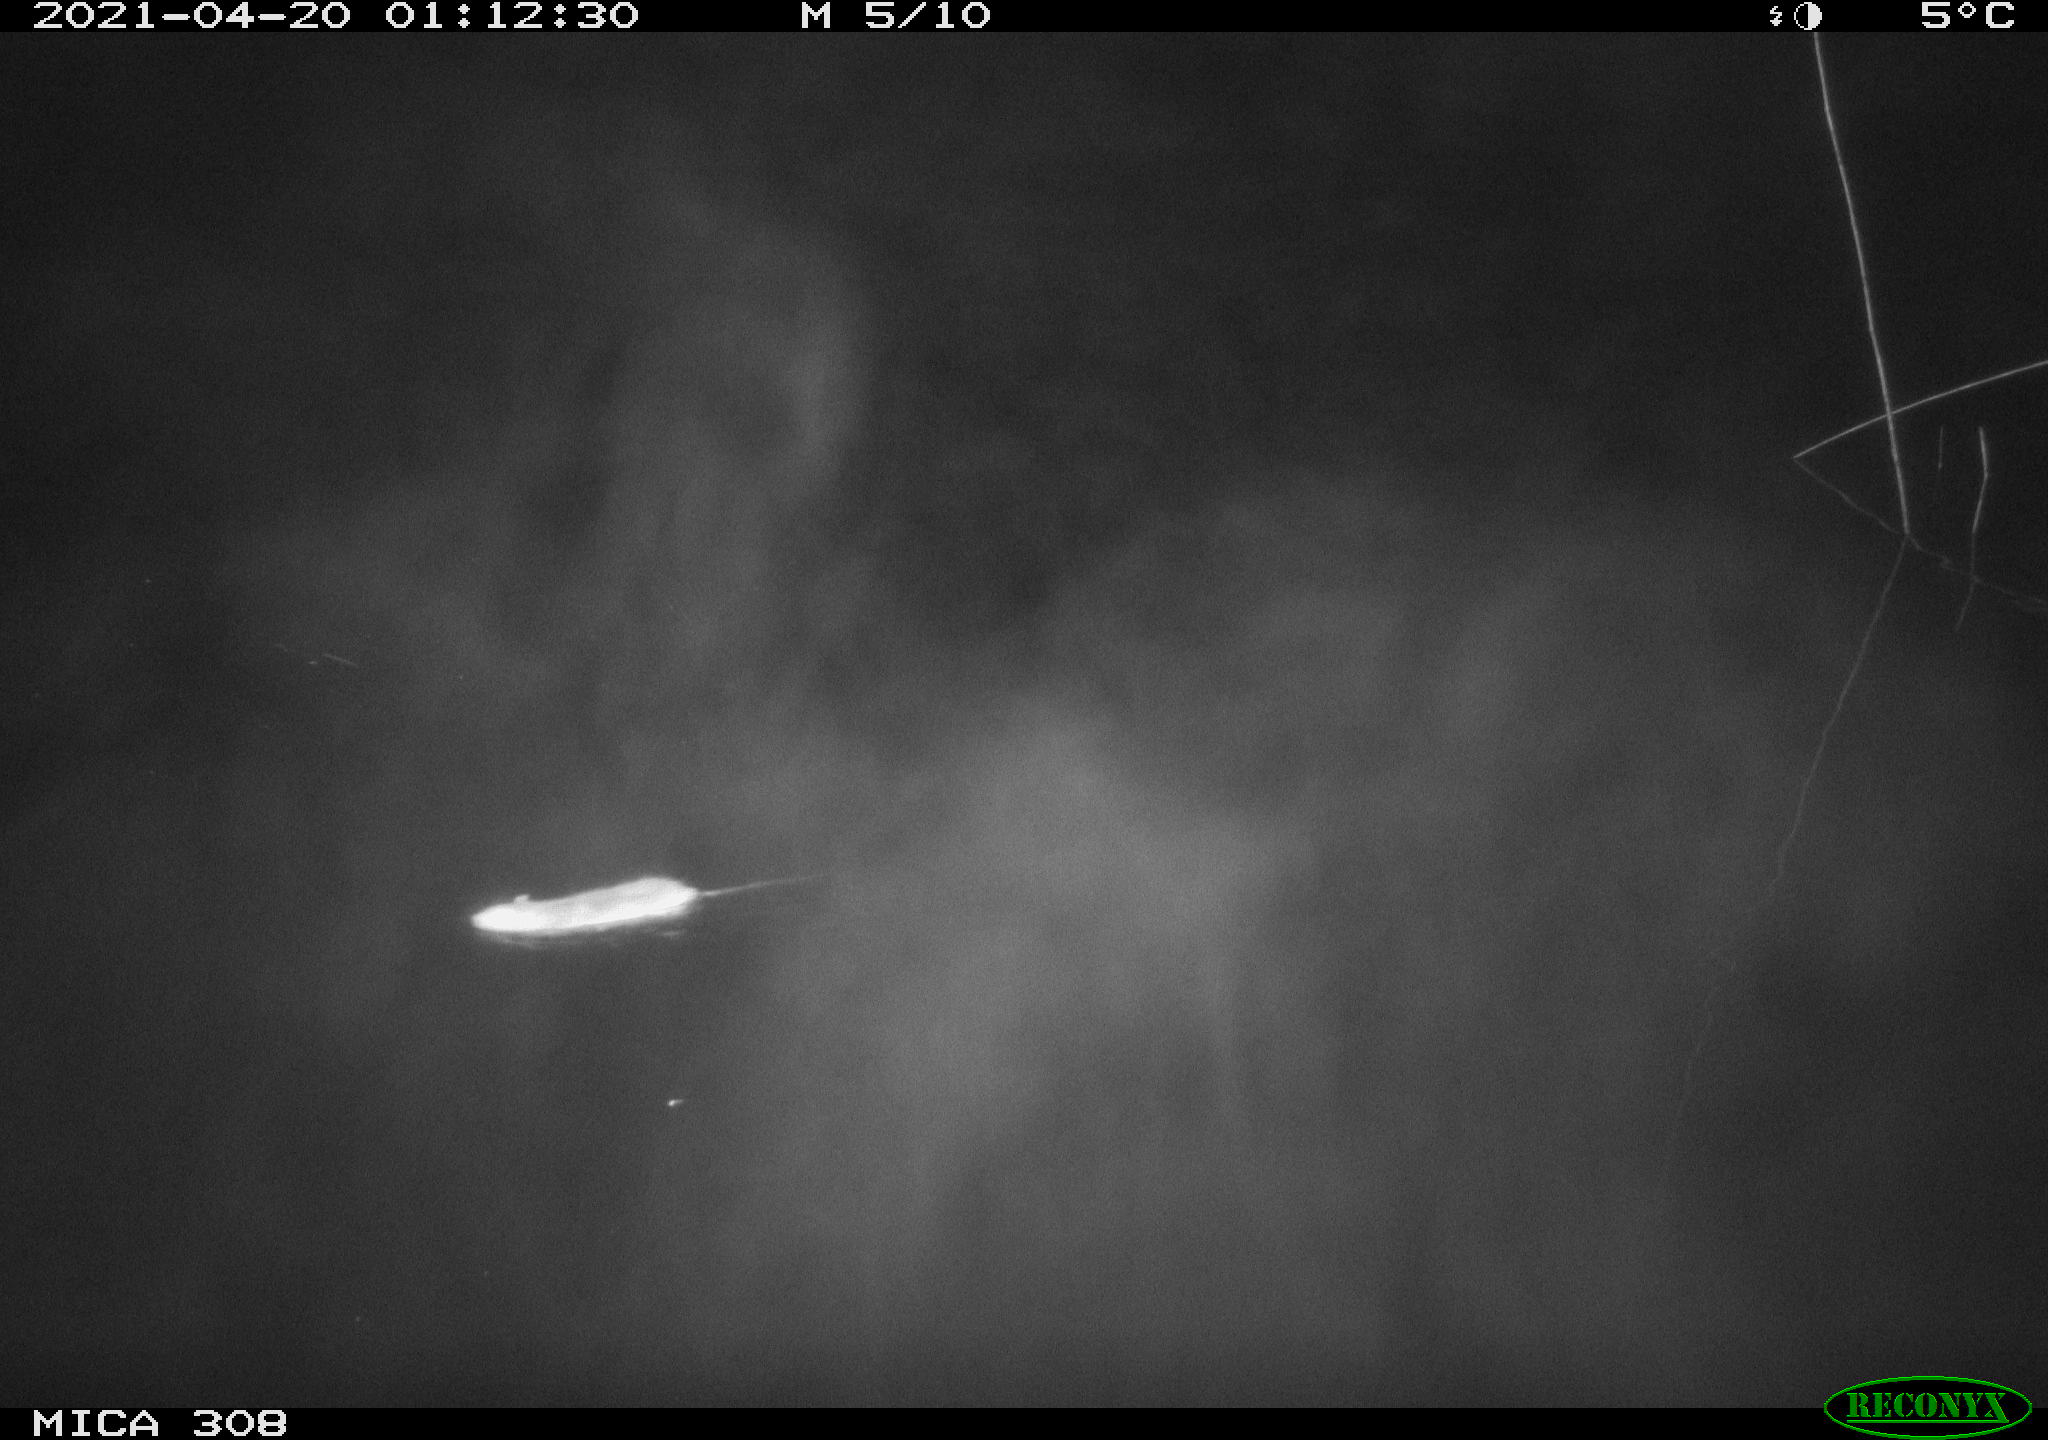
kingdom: Animalia
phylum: Chordata
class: Mammalia
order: Rodentia
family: Muridae
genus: Rattus
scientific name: Rattus norvegicus
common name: Brown rat
